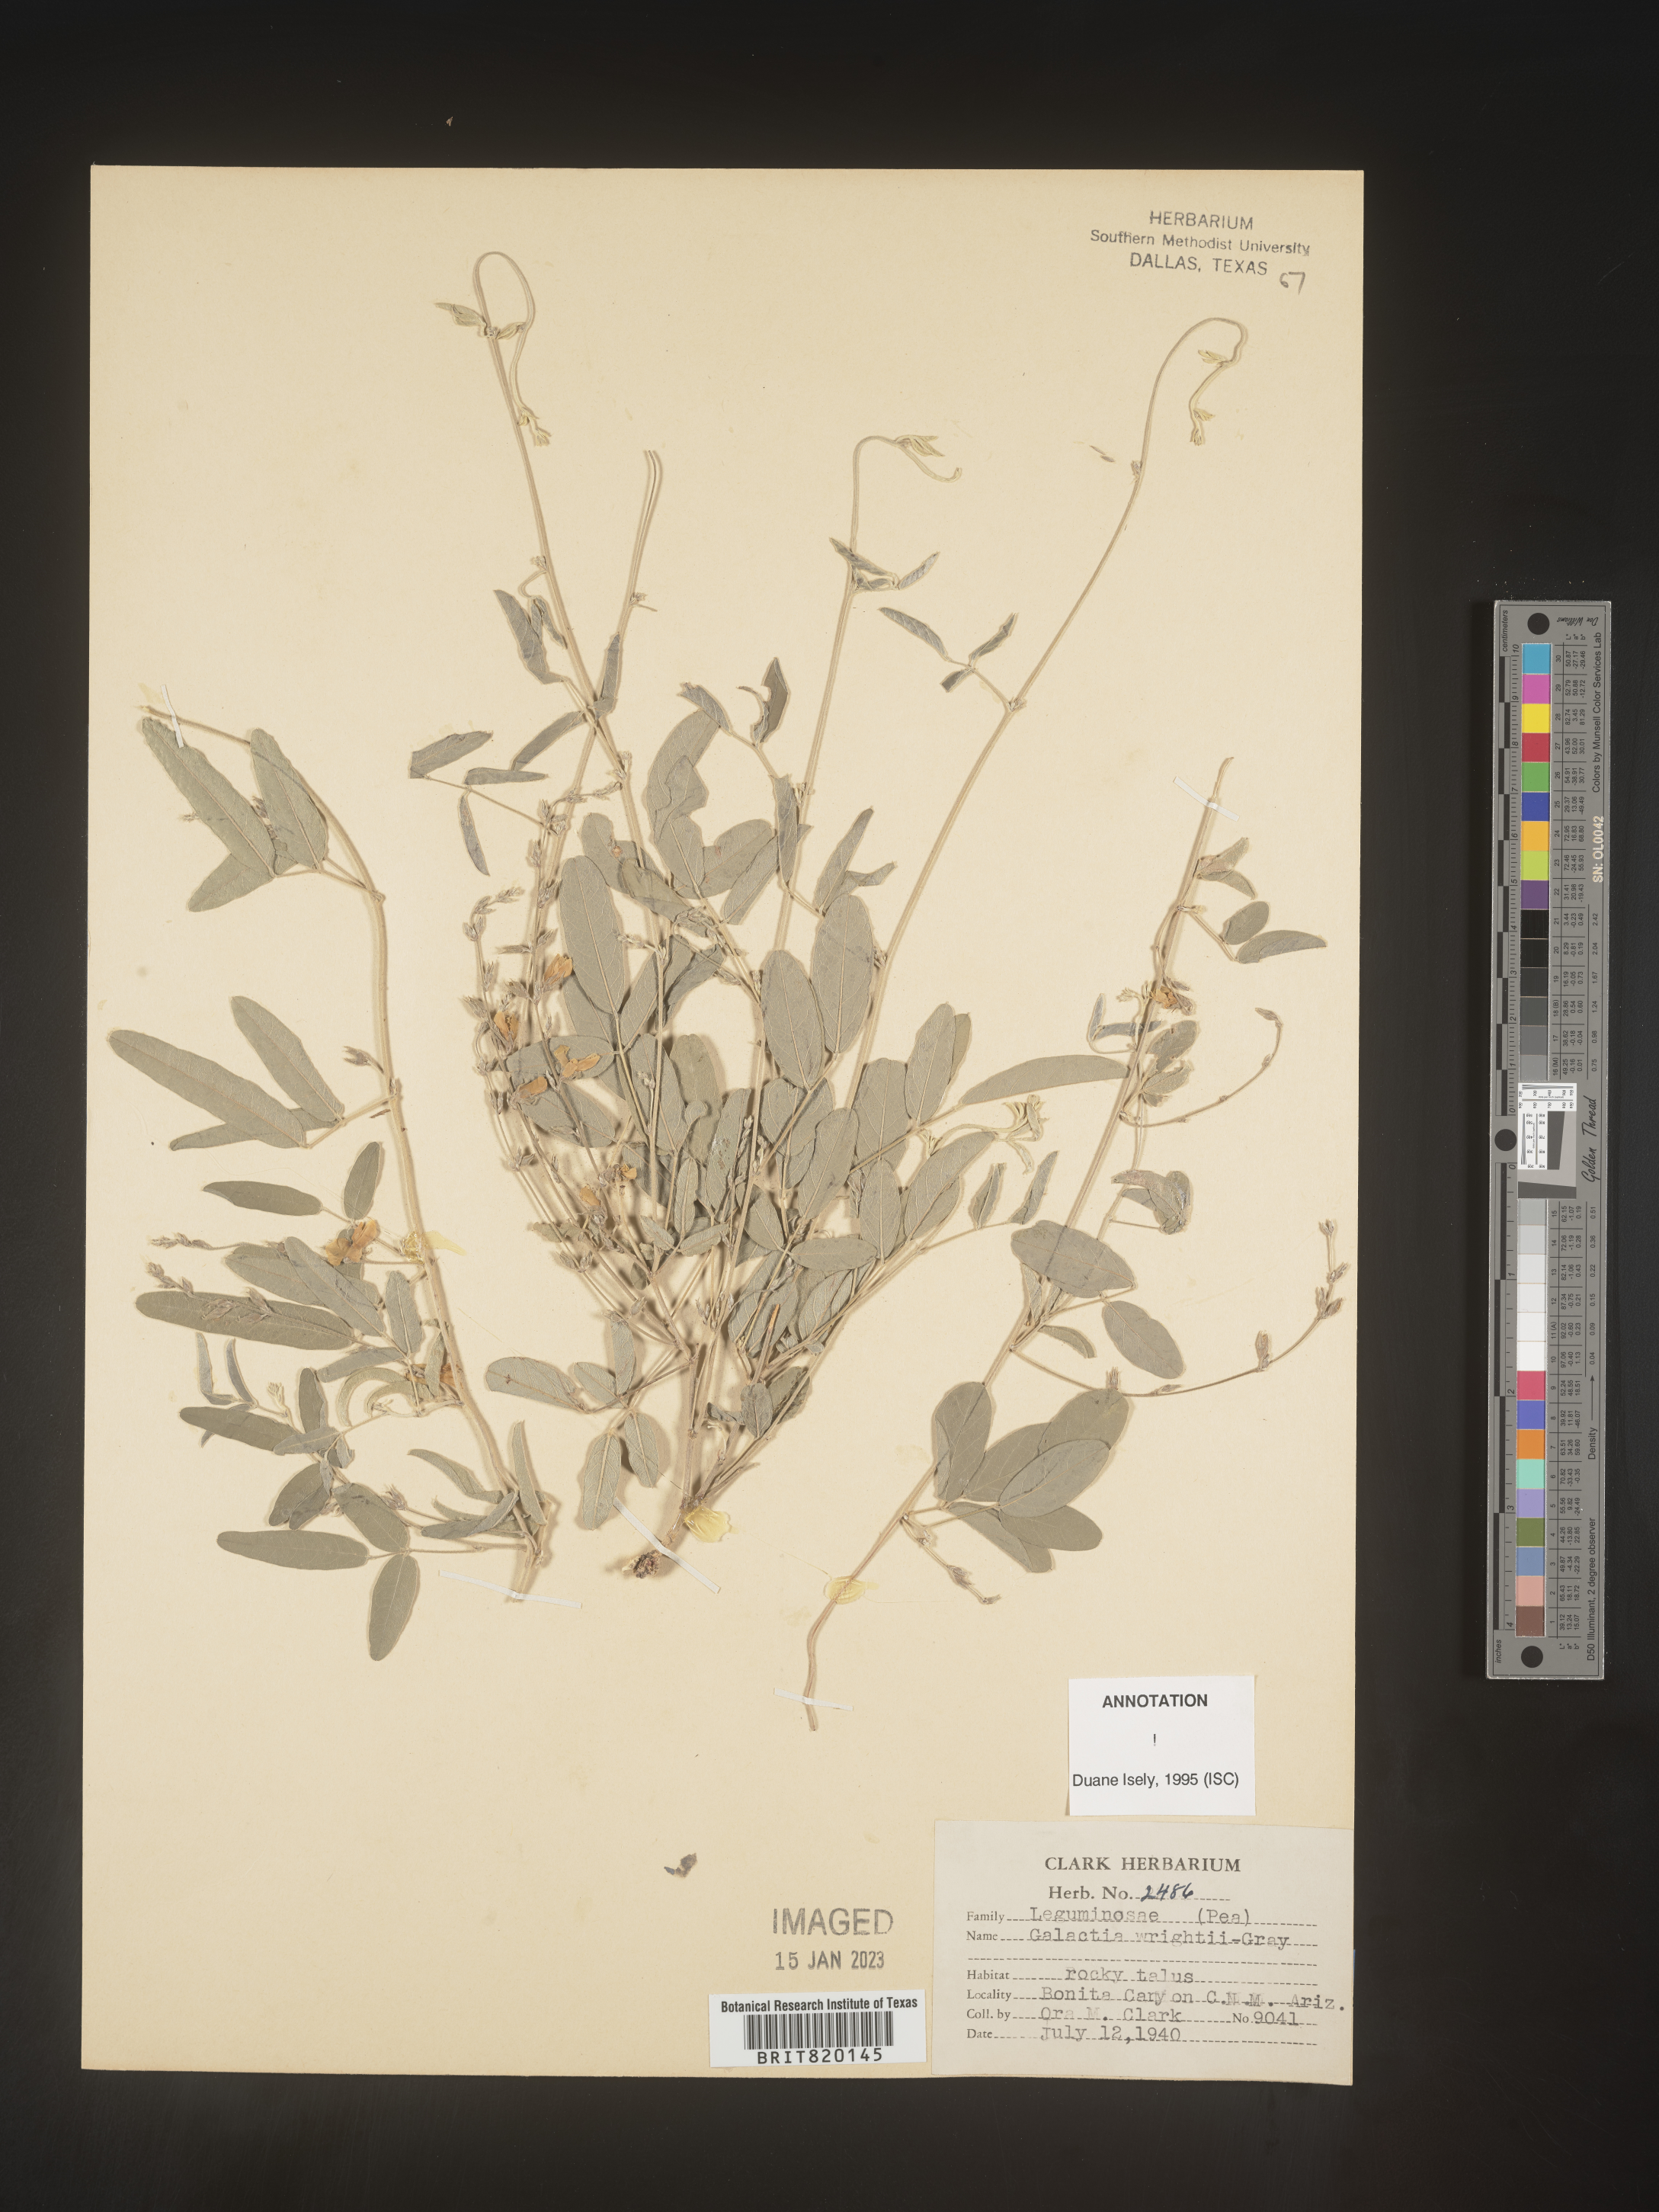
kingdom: Plantae
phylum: Tracheophyta
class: Magnoliopsida
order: Fabales
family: Fabaceae
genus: Galactia
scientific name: Galactia wrightii
